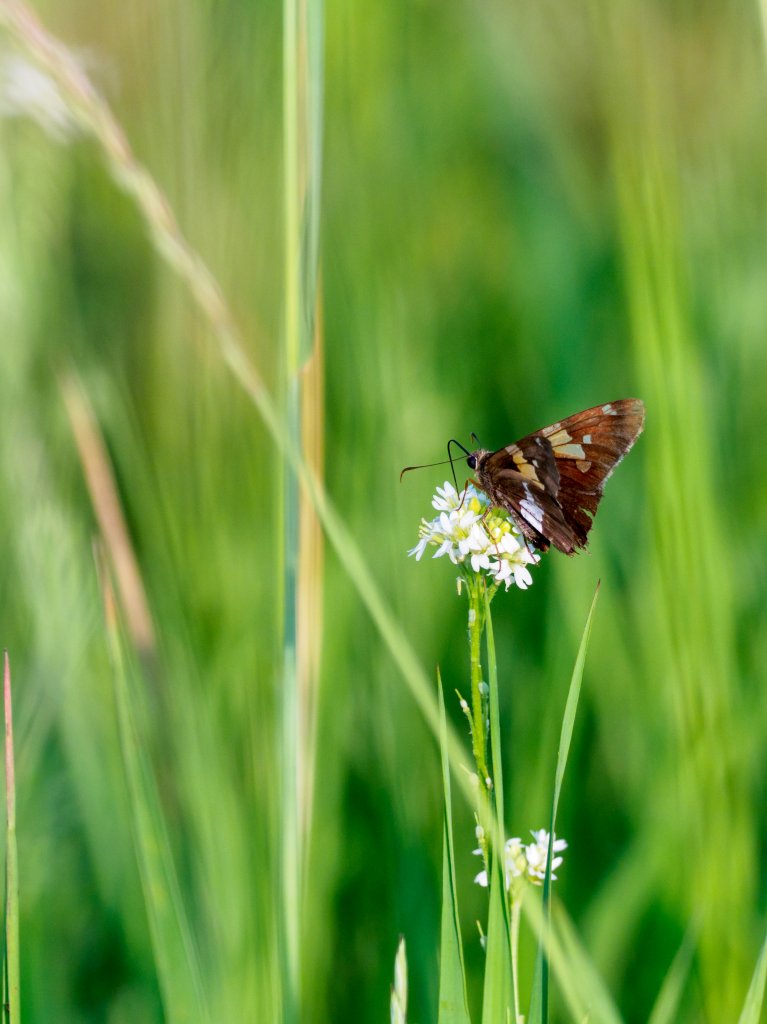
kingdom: Animalia
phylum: Arthropoda
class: Insecta
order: Lepidoptera
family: Hesperiidae
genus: Epargyreus
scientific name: Epargyreus clarus
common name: Silver-spotted Skipper
